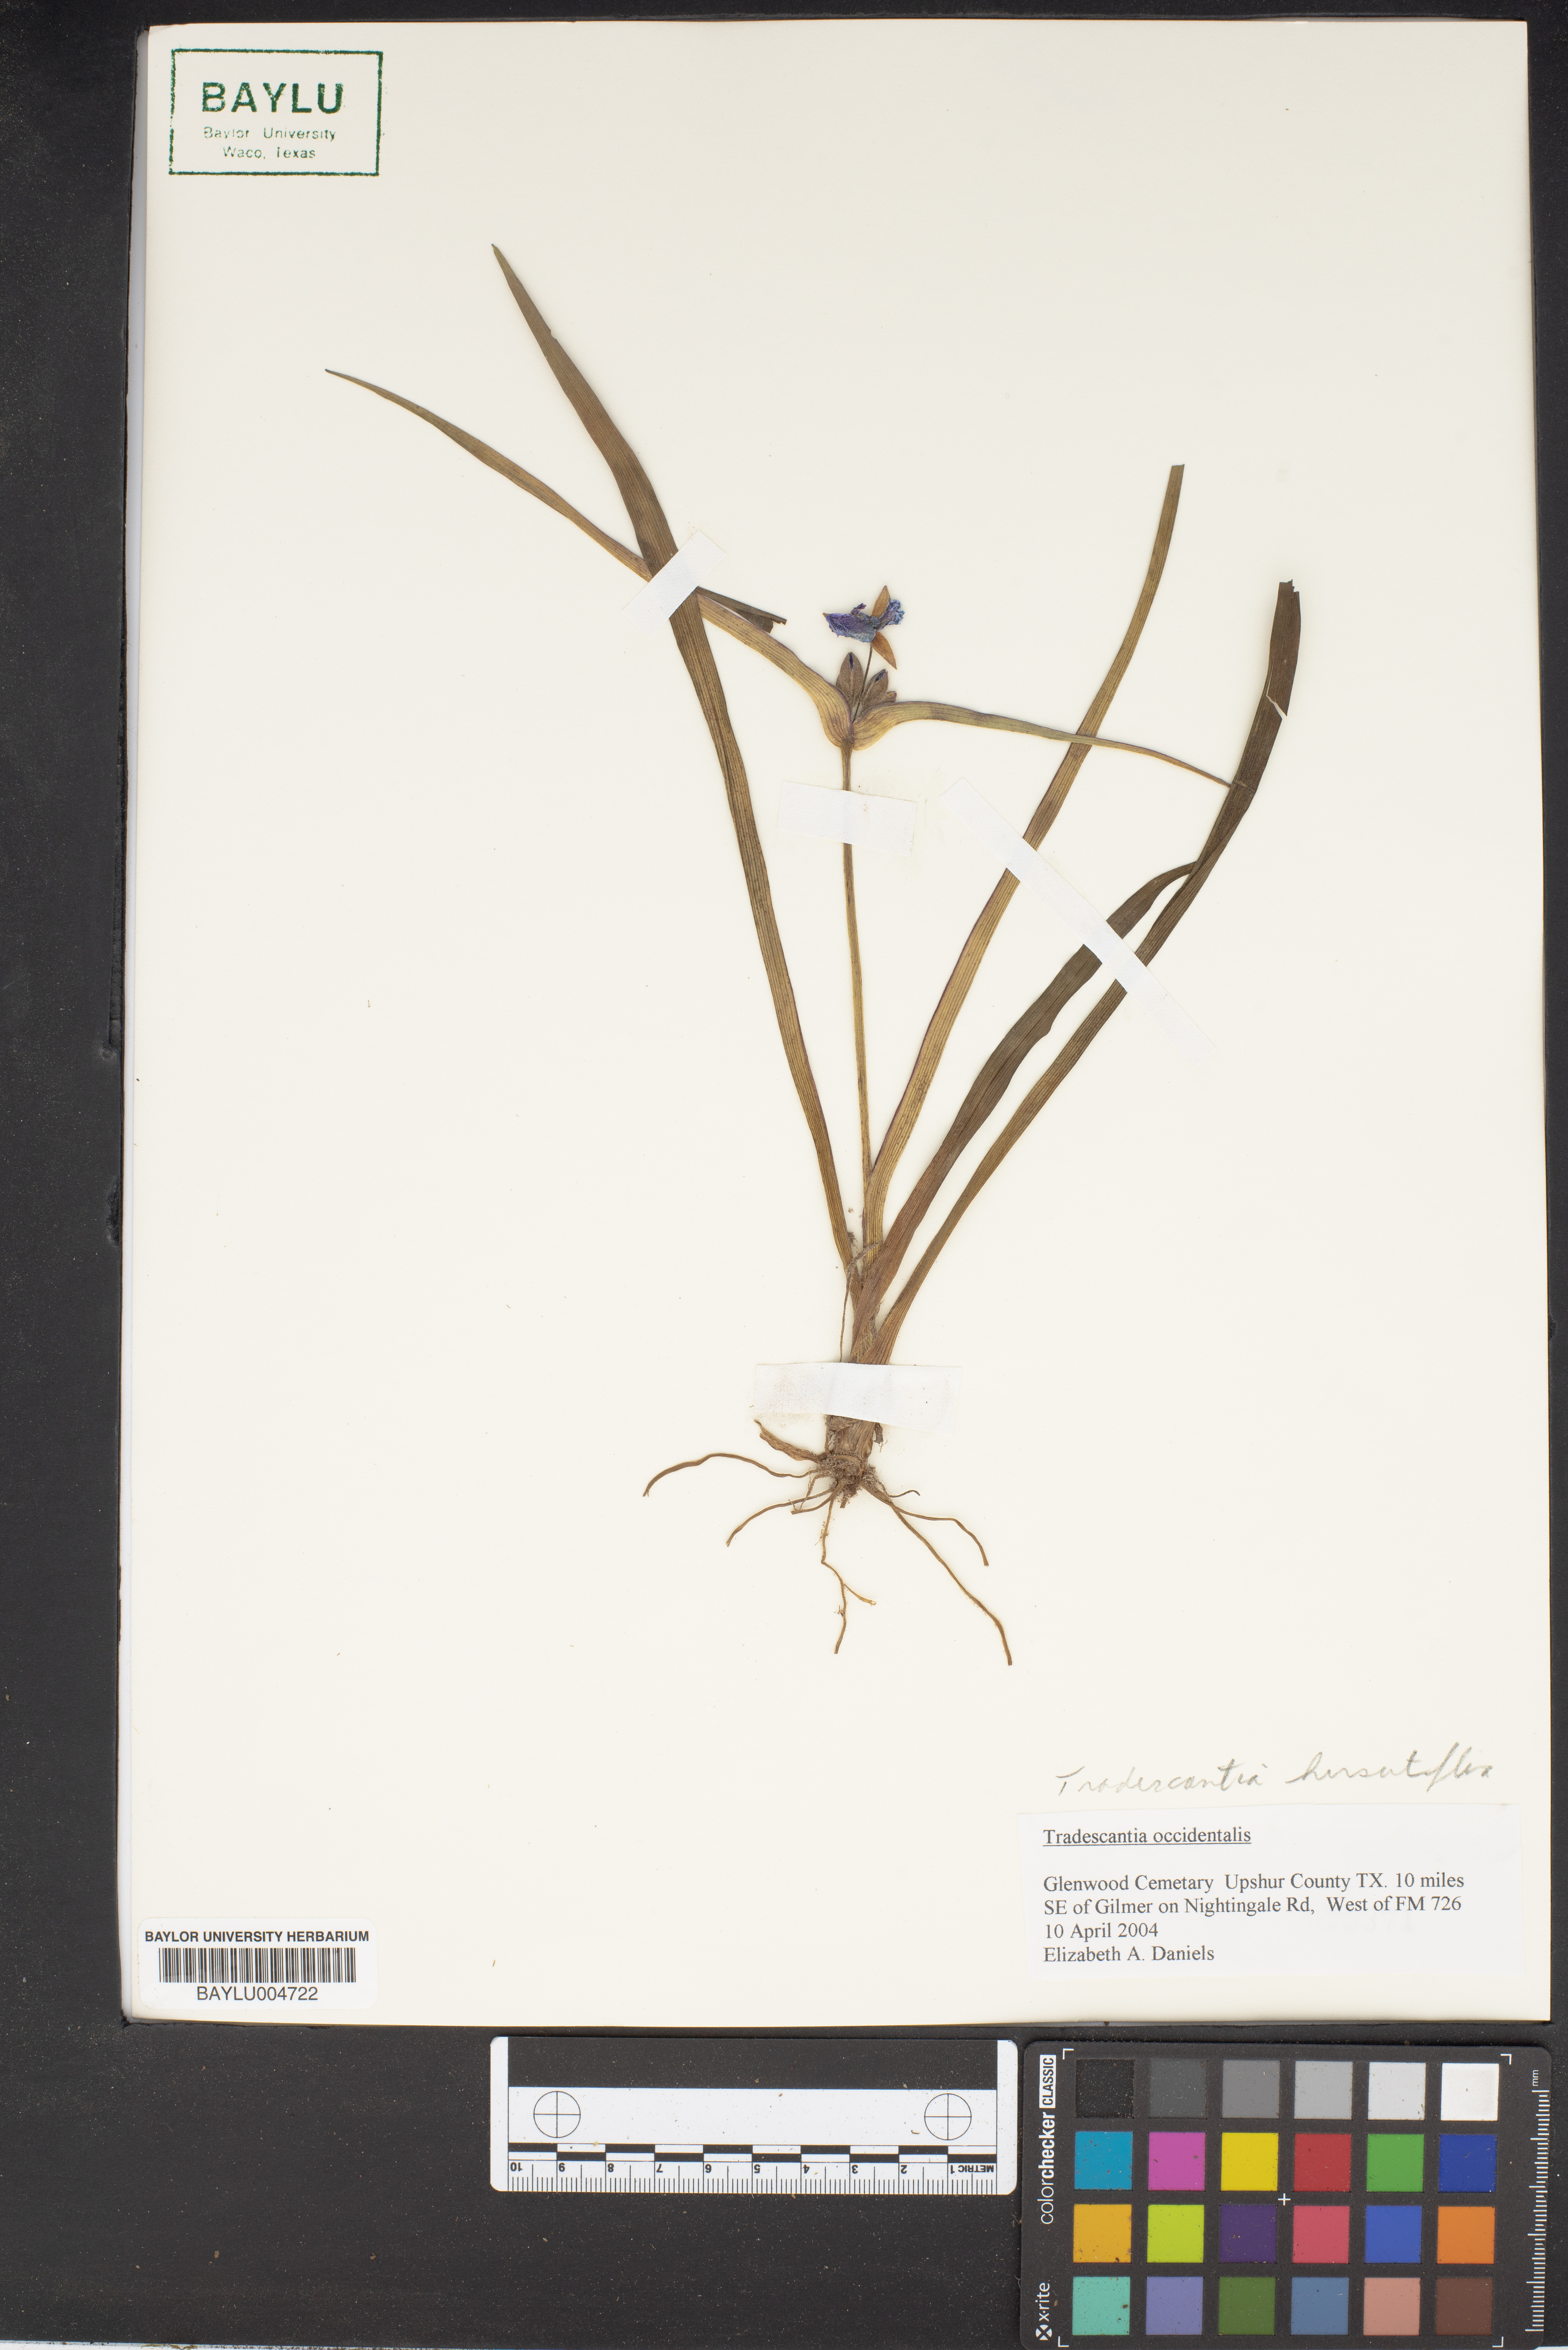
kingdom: Plantae
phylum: Tracheophyta
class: Liliopsida
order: Commelinales
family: Commelinaceae
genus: Tradescantia
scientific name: Tradescantia hirsutiflora
